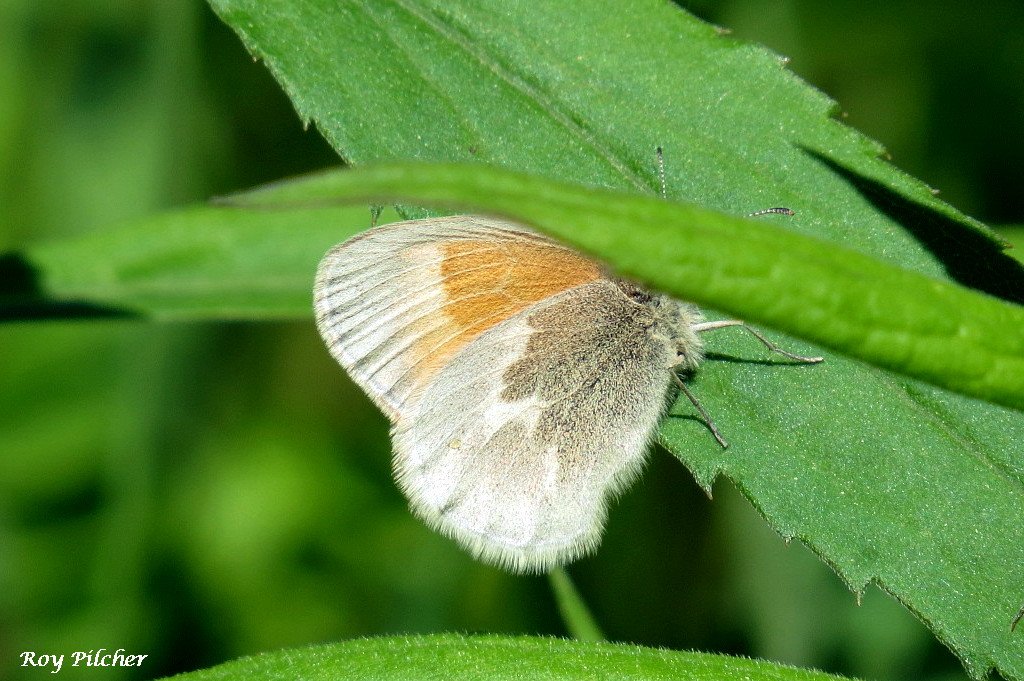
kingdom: Animalia
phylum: Arthropoda
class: Insecta
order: Lepidoptera
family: Nymphalidae
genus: Coenonympha
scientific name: Coenonympha tullia
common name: Large Heath
